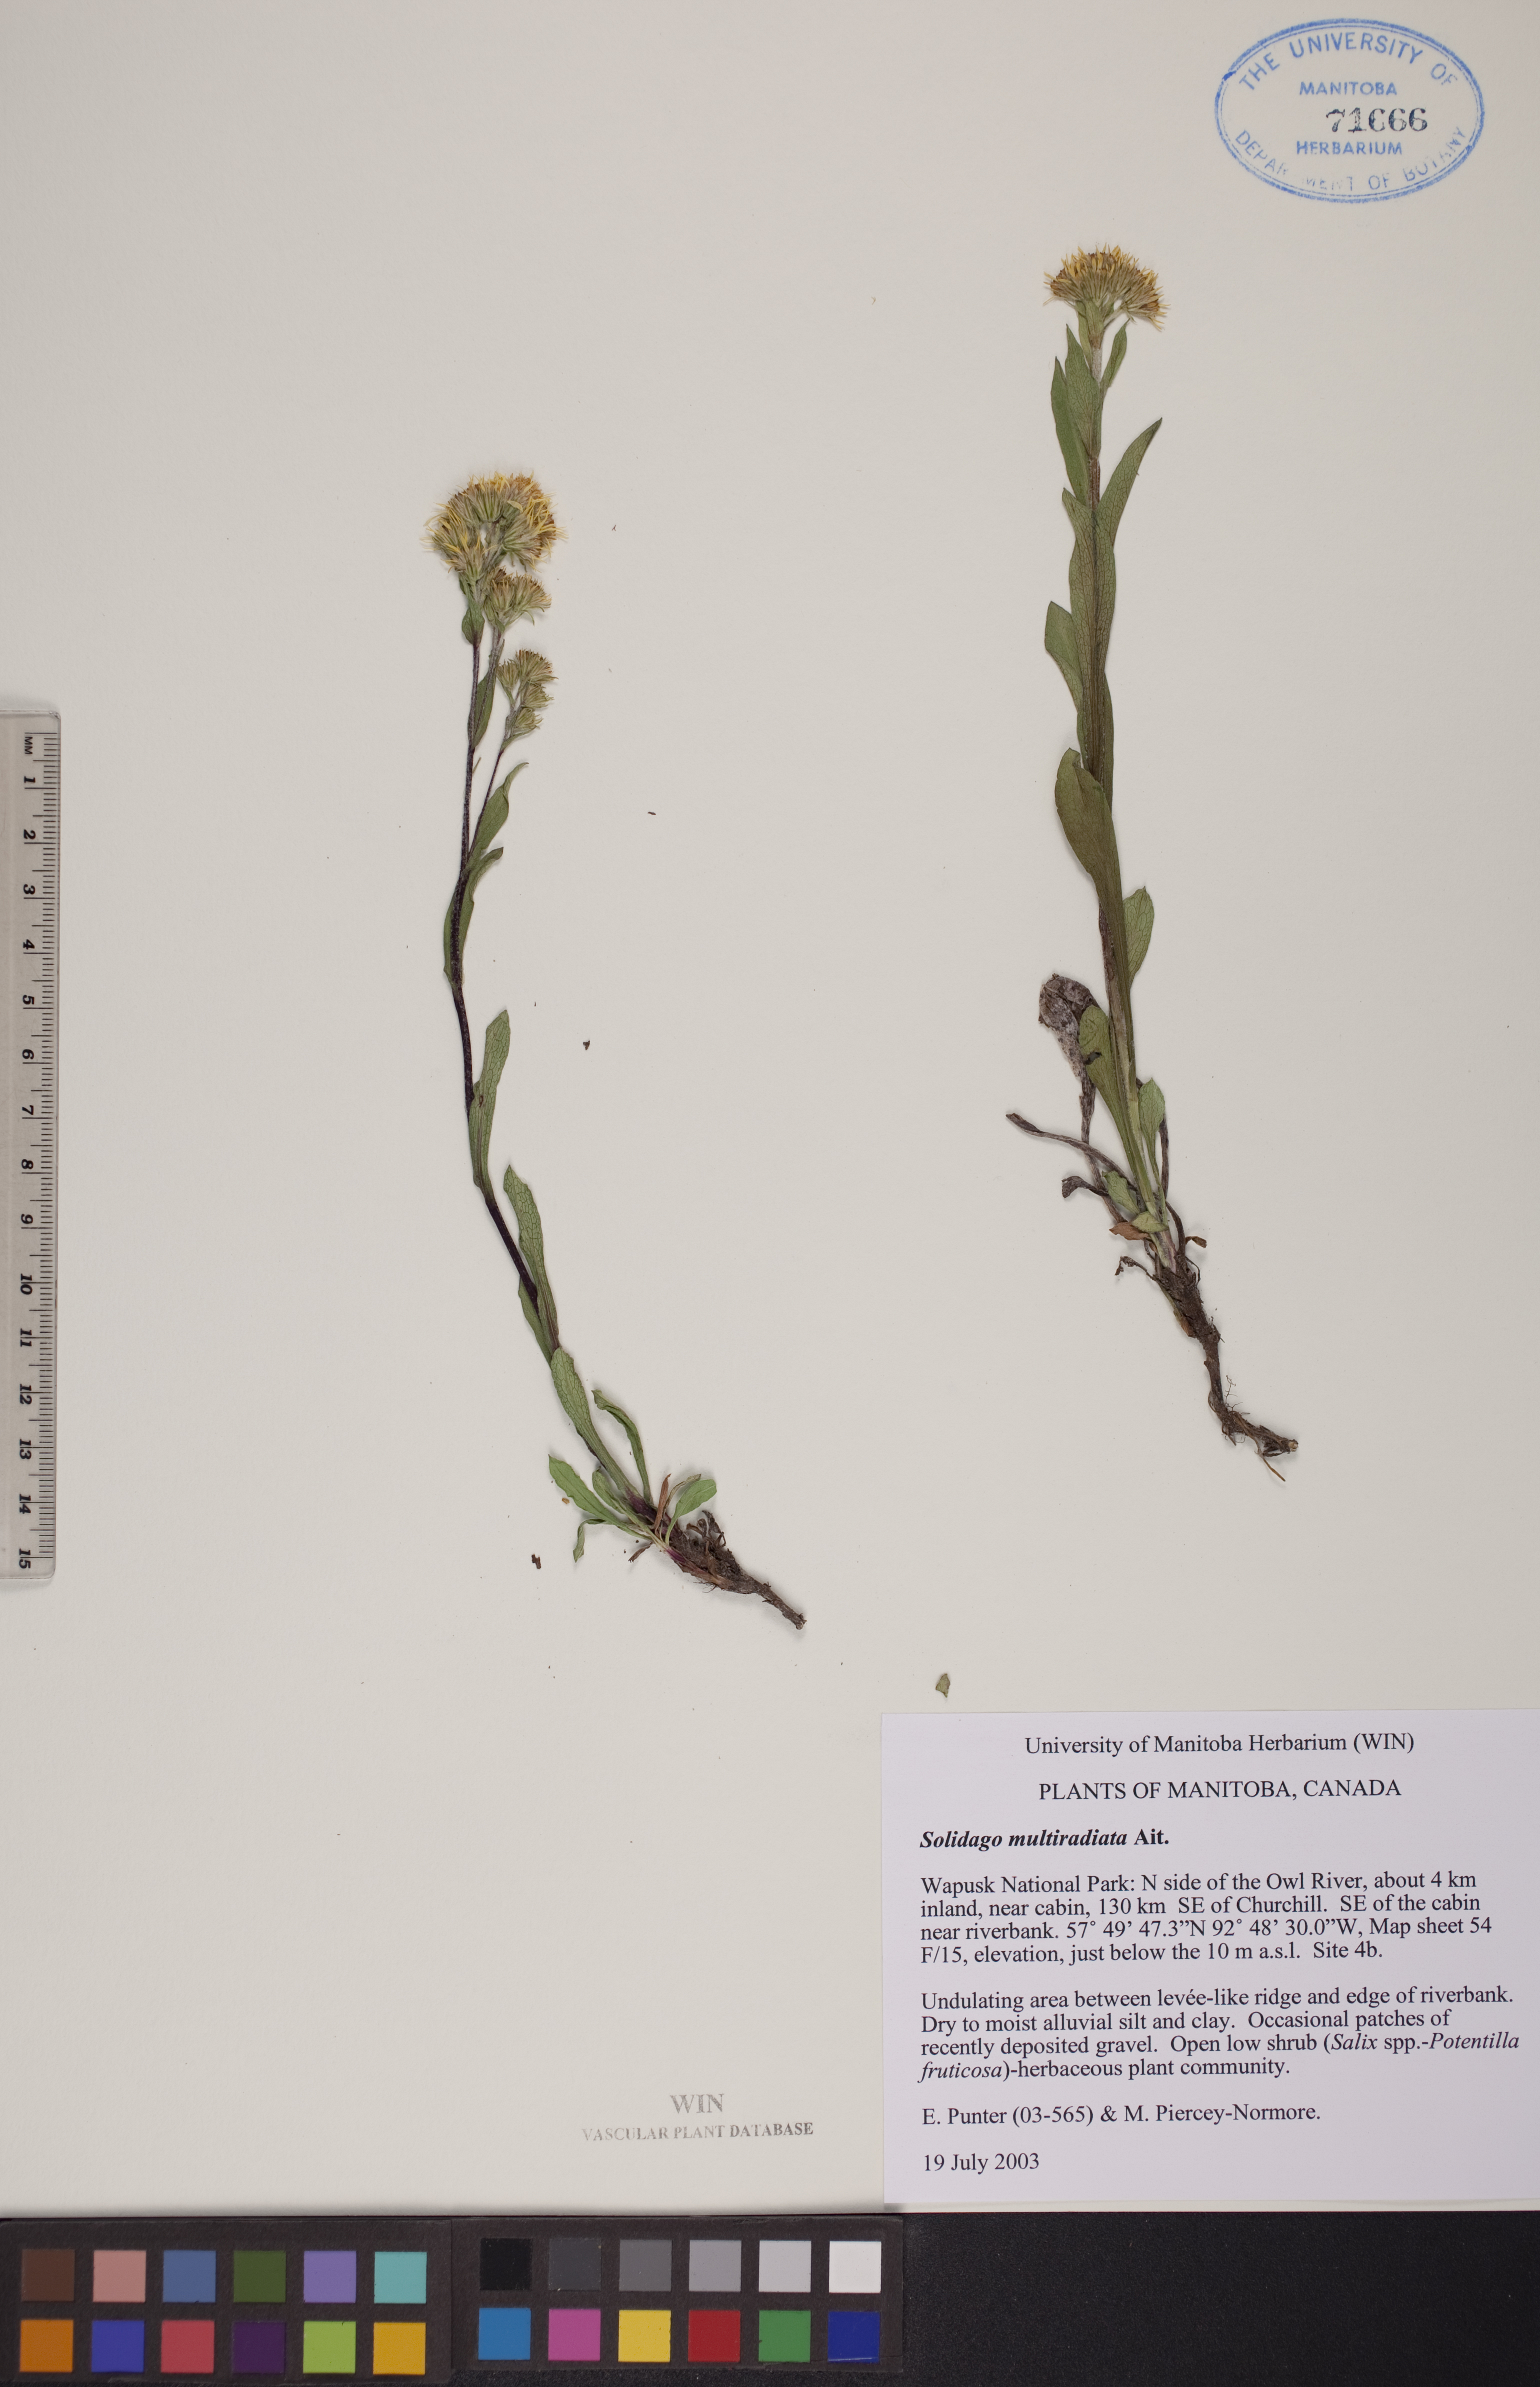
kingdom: Plantae
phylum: Tracheophyta
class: Magnoliopsida
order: Asterales
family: Asteraceae
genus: Solidago
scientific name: Solidago multiradiata
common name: Northern goldenrod
